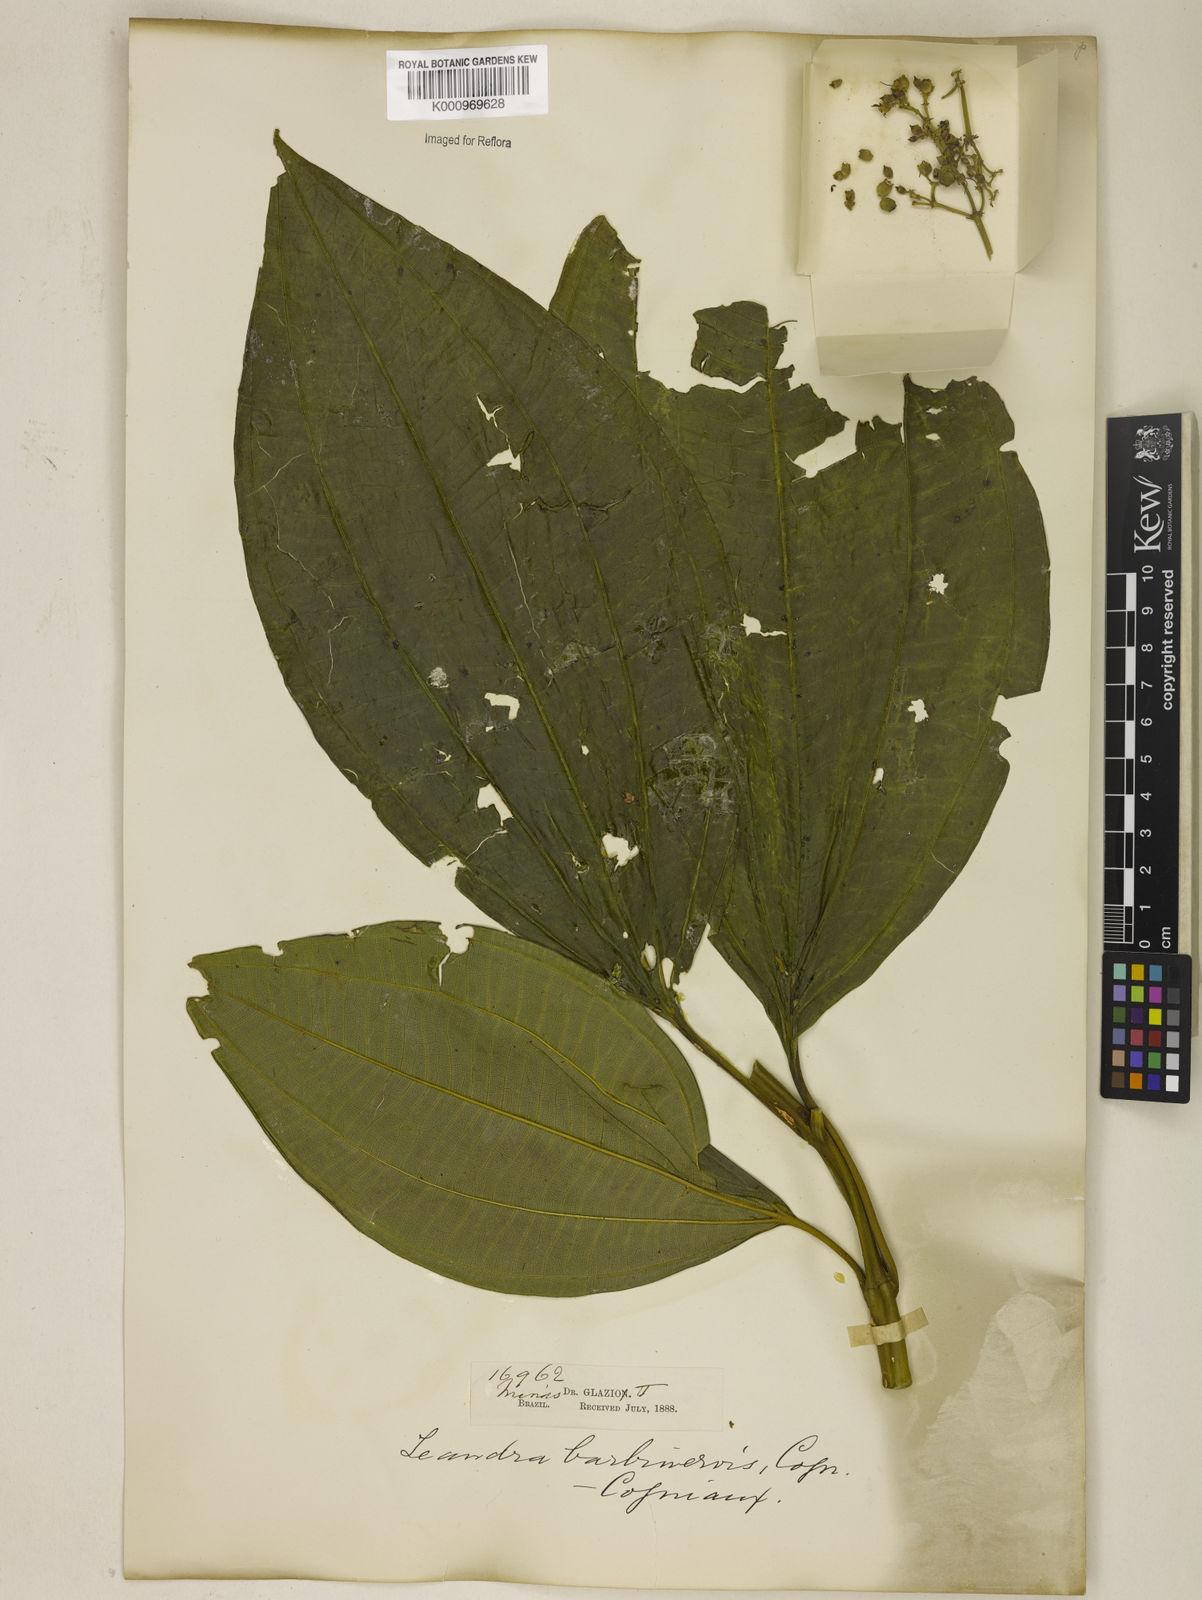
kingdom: Plantae
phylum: Tracheophyta
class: Magnoliopsida
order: Myrtales
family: Melastomataceae
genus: Miconia
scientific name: Miconia trauninensis
